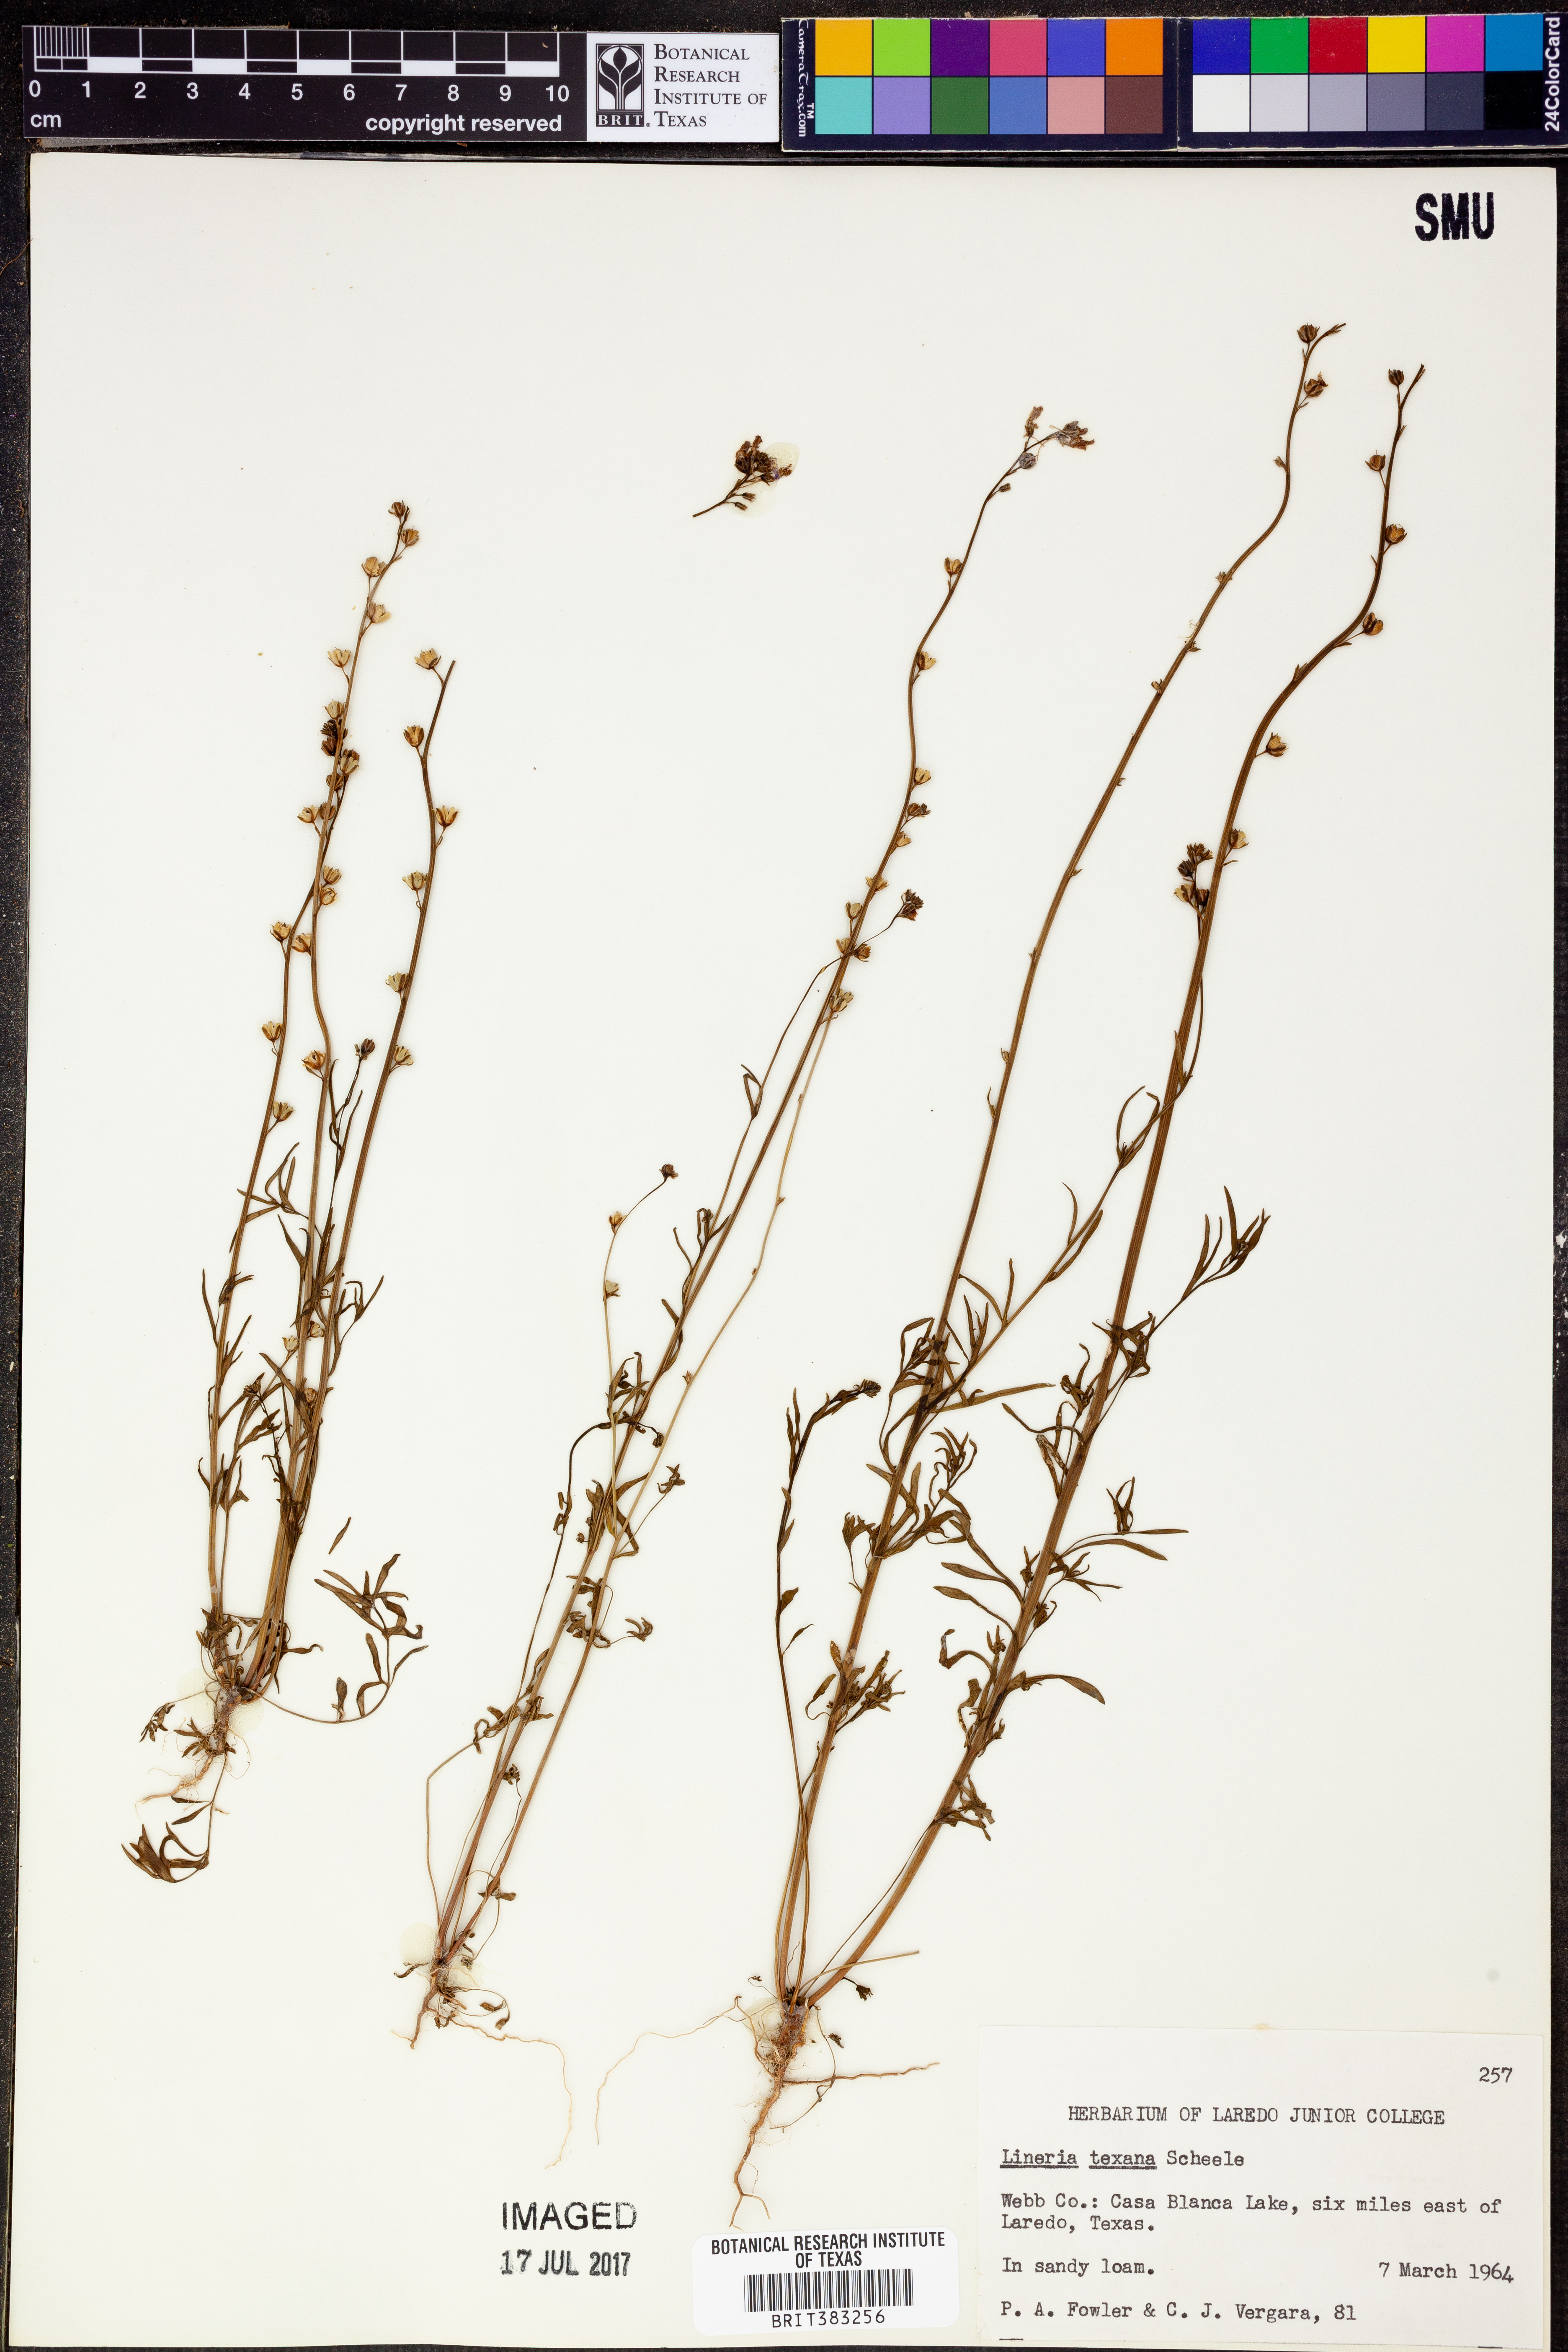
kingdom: Plantae
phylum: Tracheophyta
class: Magnoliopsida
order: Lamiales
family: Plantaginaceae
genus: Nuttallanthus
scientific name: Nuttallanthus texanus
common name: Texas toadflax
